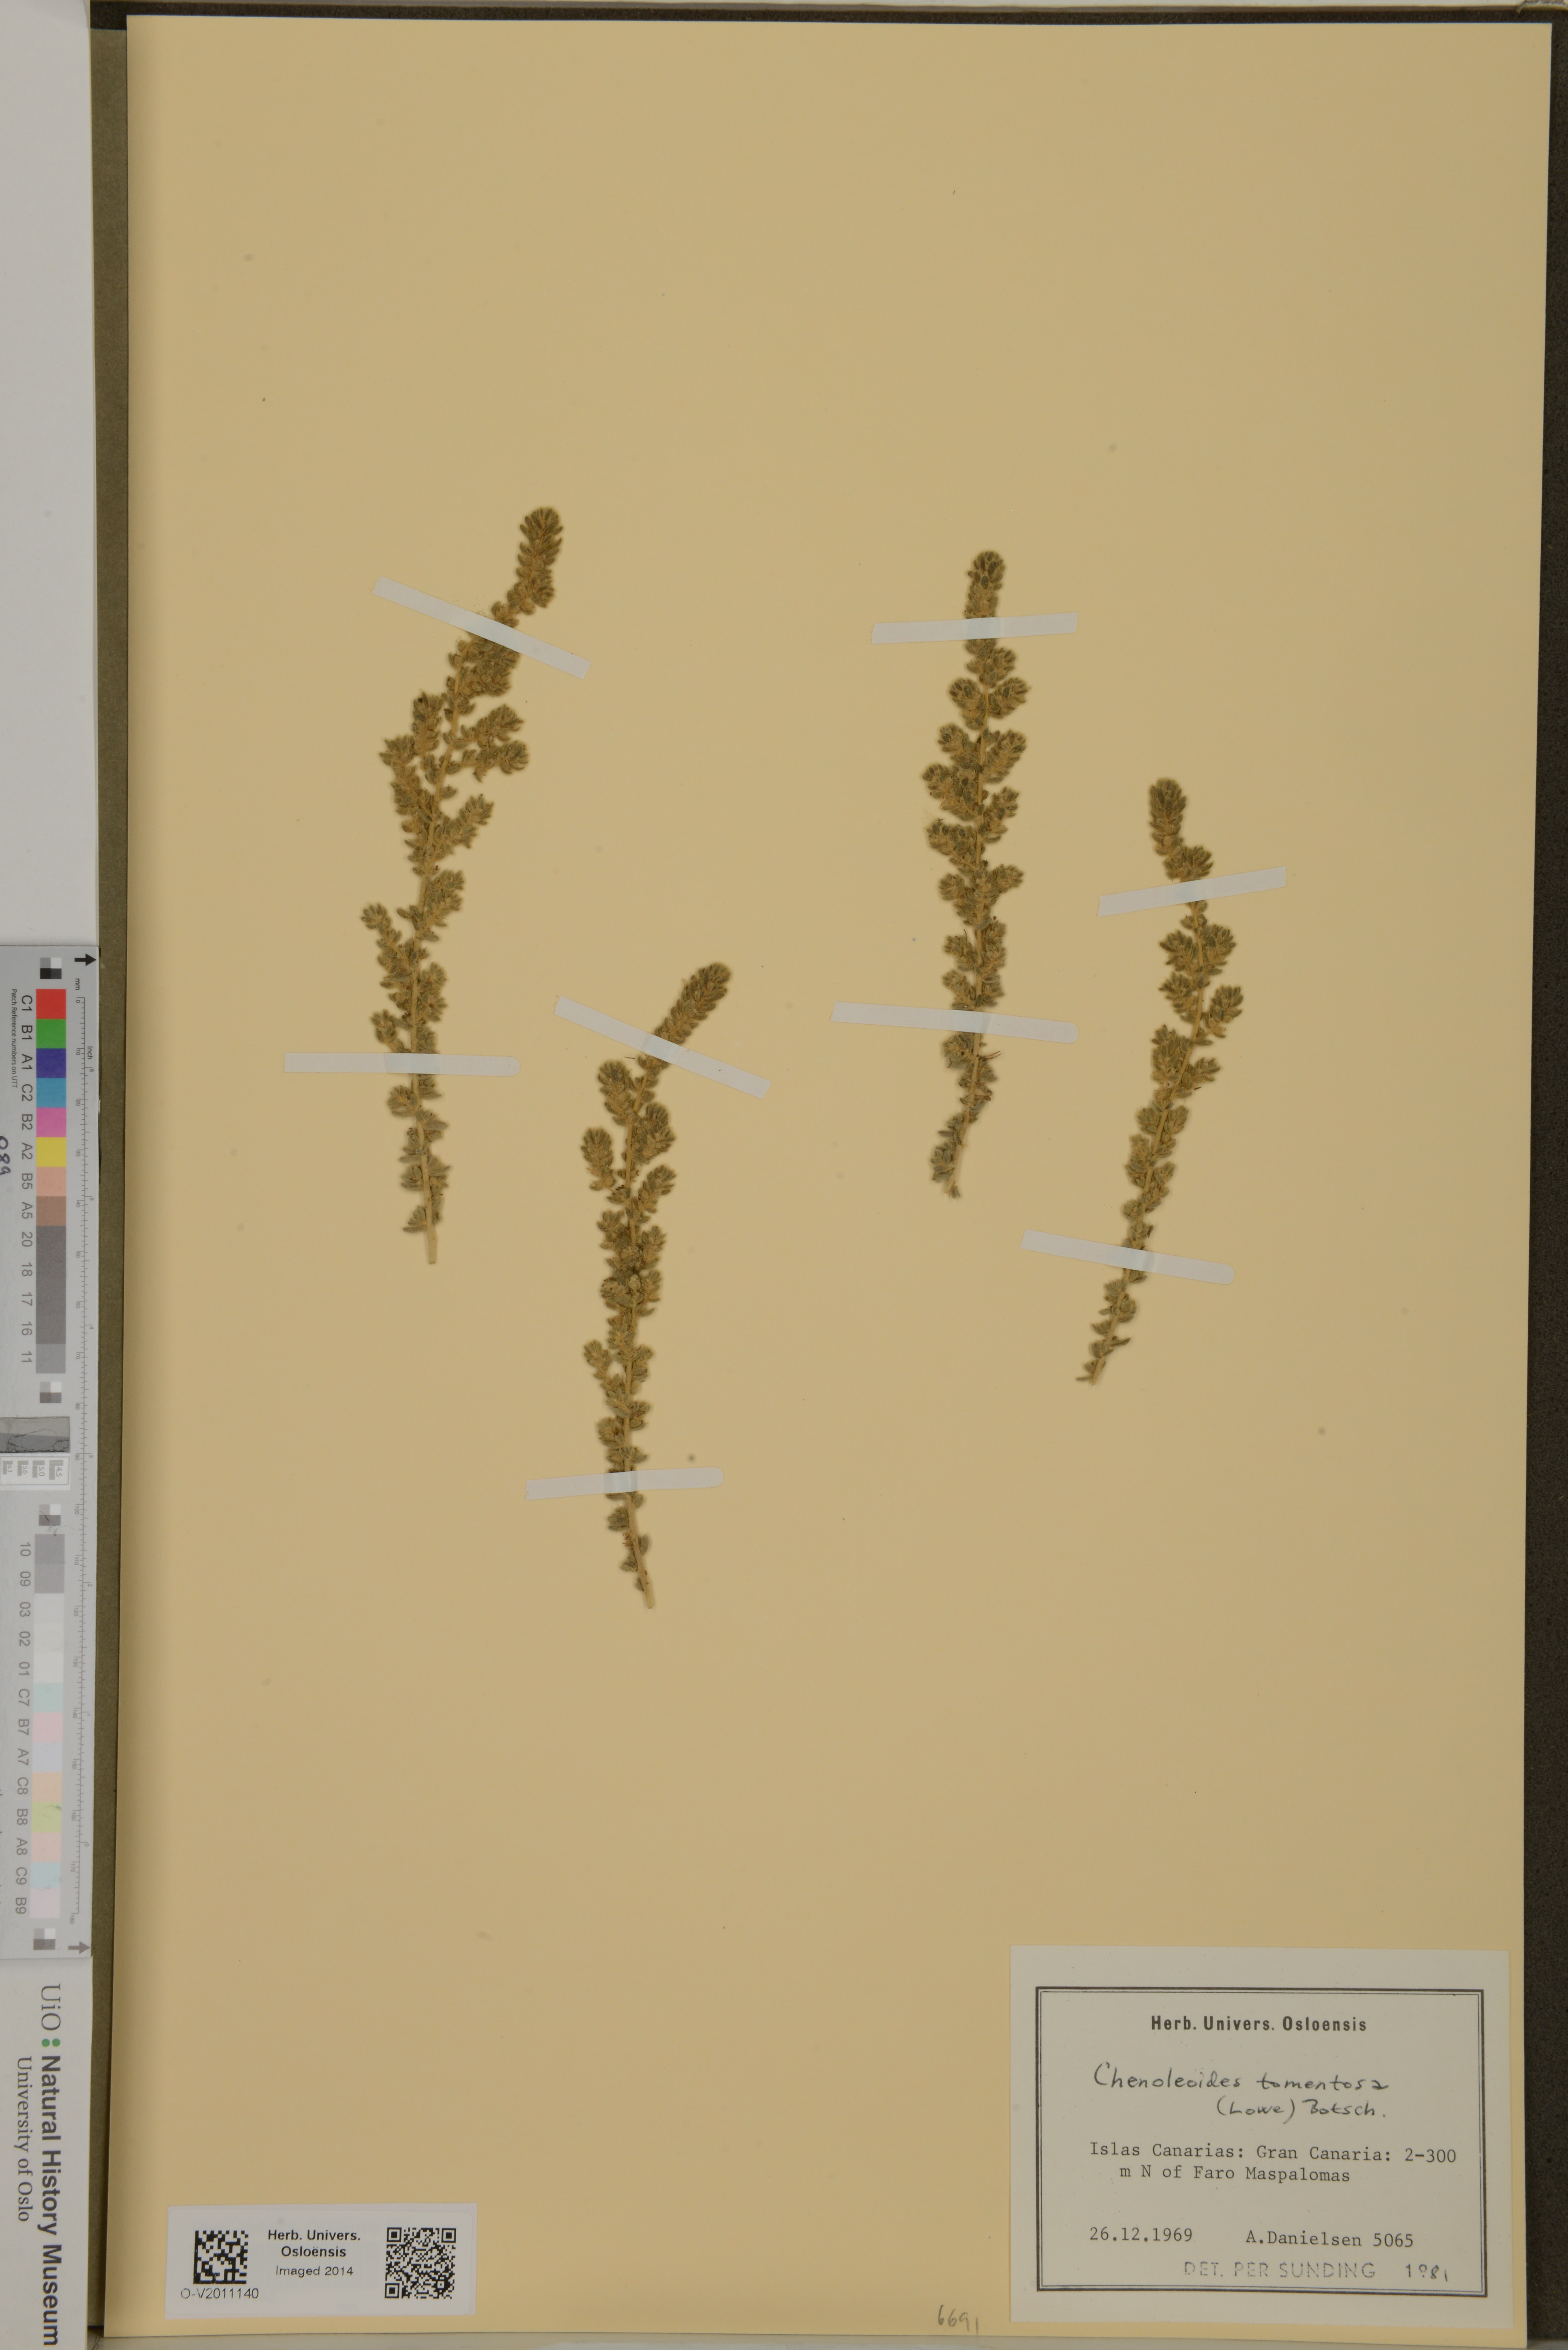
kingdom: Plantae
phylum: Tracheophyta
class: Magnoliopsida
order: Caryophyllales
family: Amaranthaceae
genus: Bassia
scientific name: Bassia tomentosa
